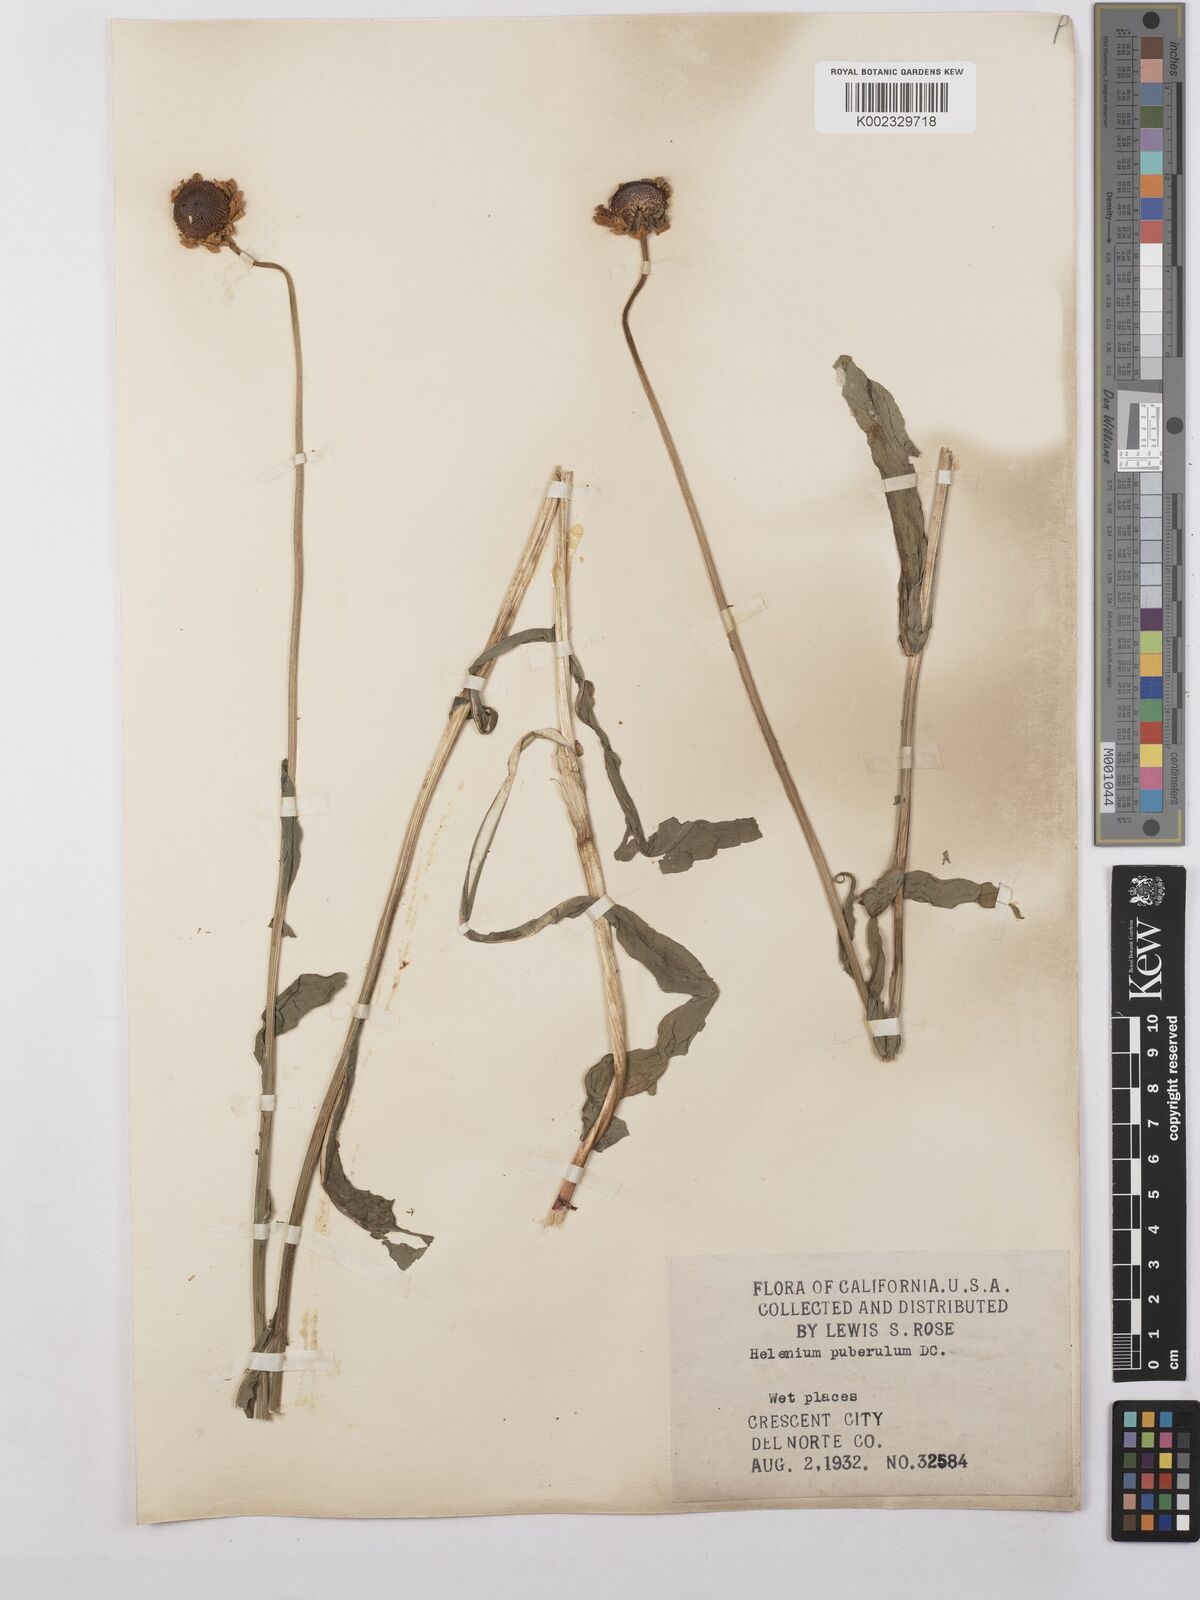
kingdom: Plantae
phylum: Tracheophyta
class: Magnoliopsida
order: Asterales
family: Asteraceae
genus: Helenium
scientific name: Helenium puberulum
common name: Sneezewort
